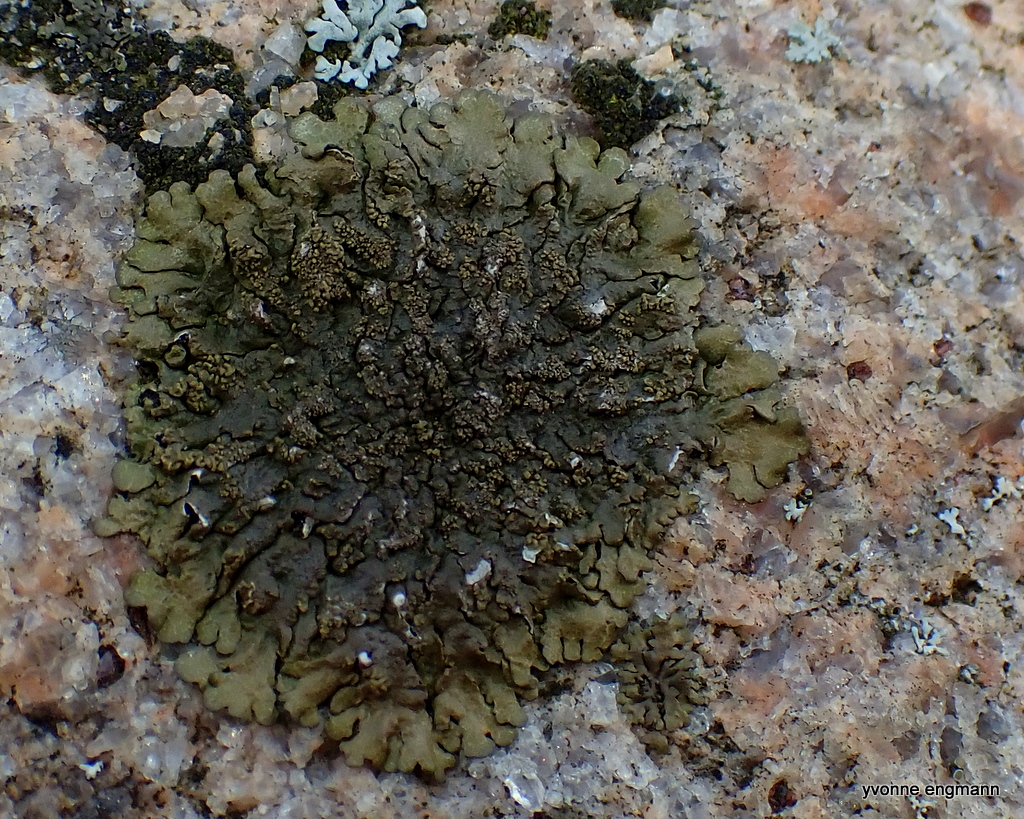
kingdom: Fungi
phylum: Ascomycota
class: Lecanoromycetes
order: Lecanorales
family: Parmeliaceae
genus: Xanthoparmelia
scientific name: Xanthoparmelia verruculifera
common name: småknoppet skållav
